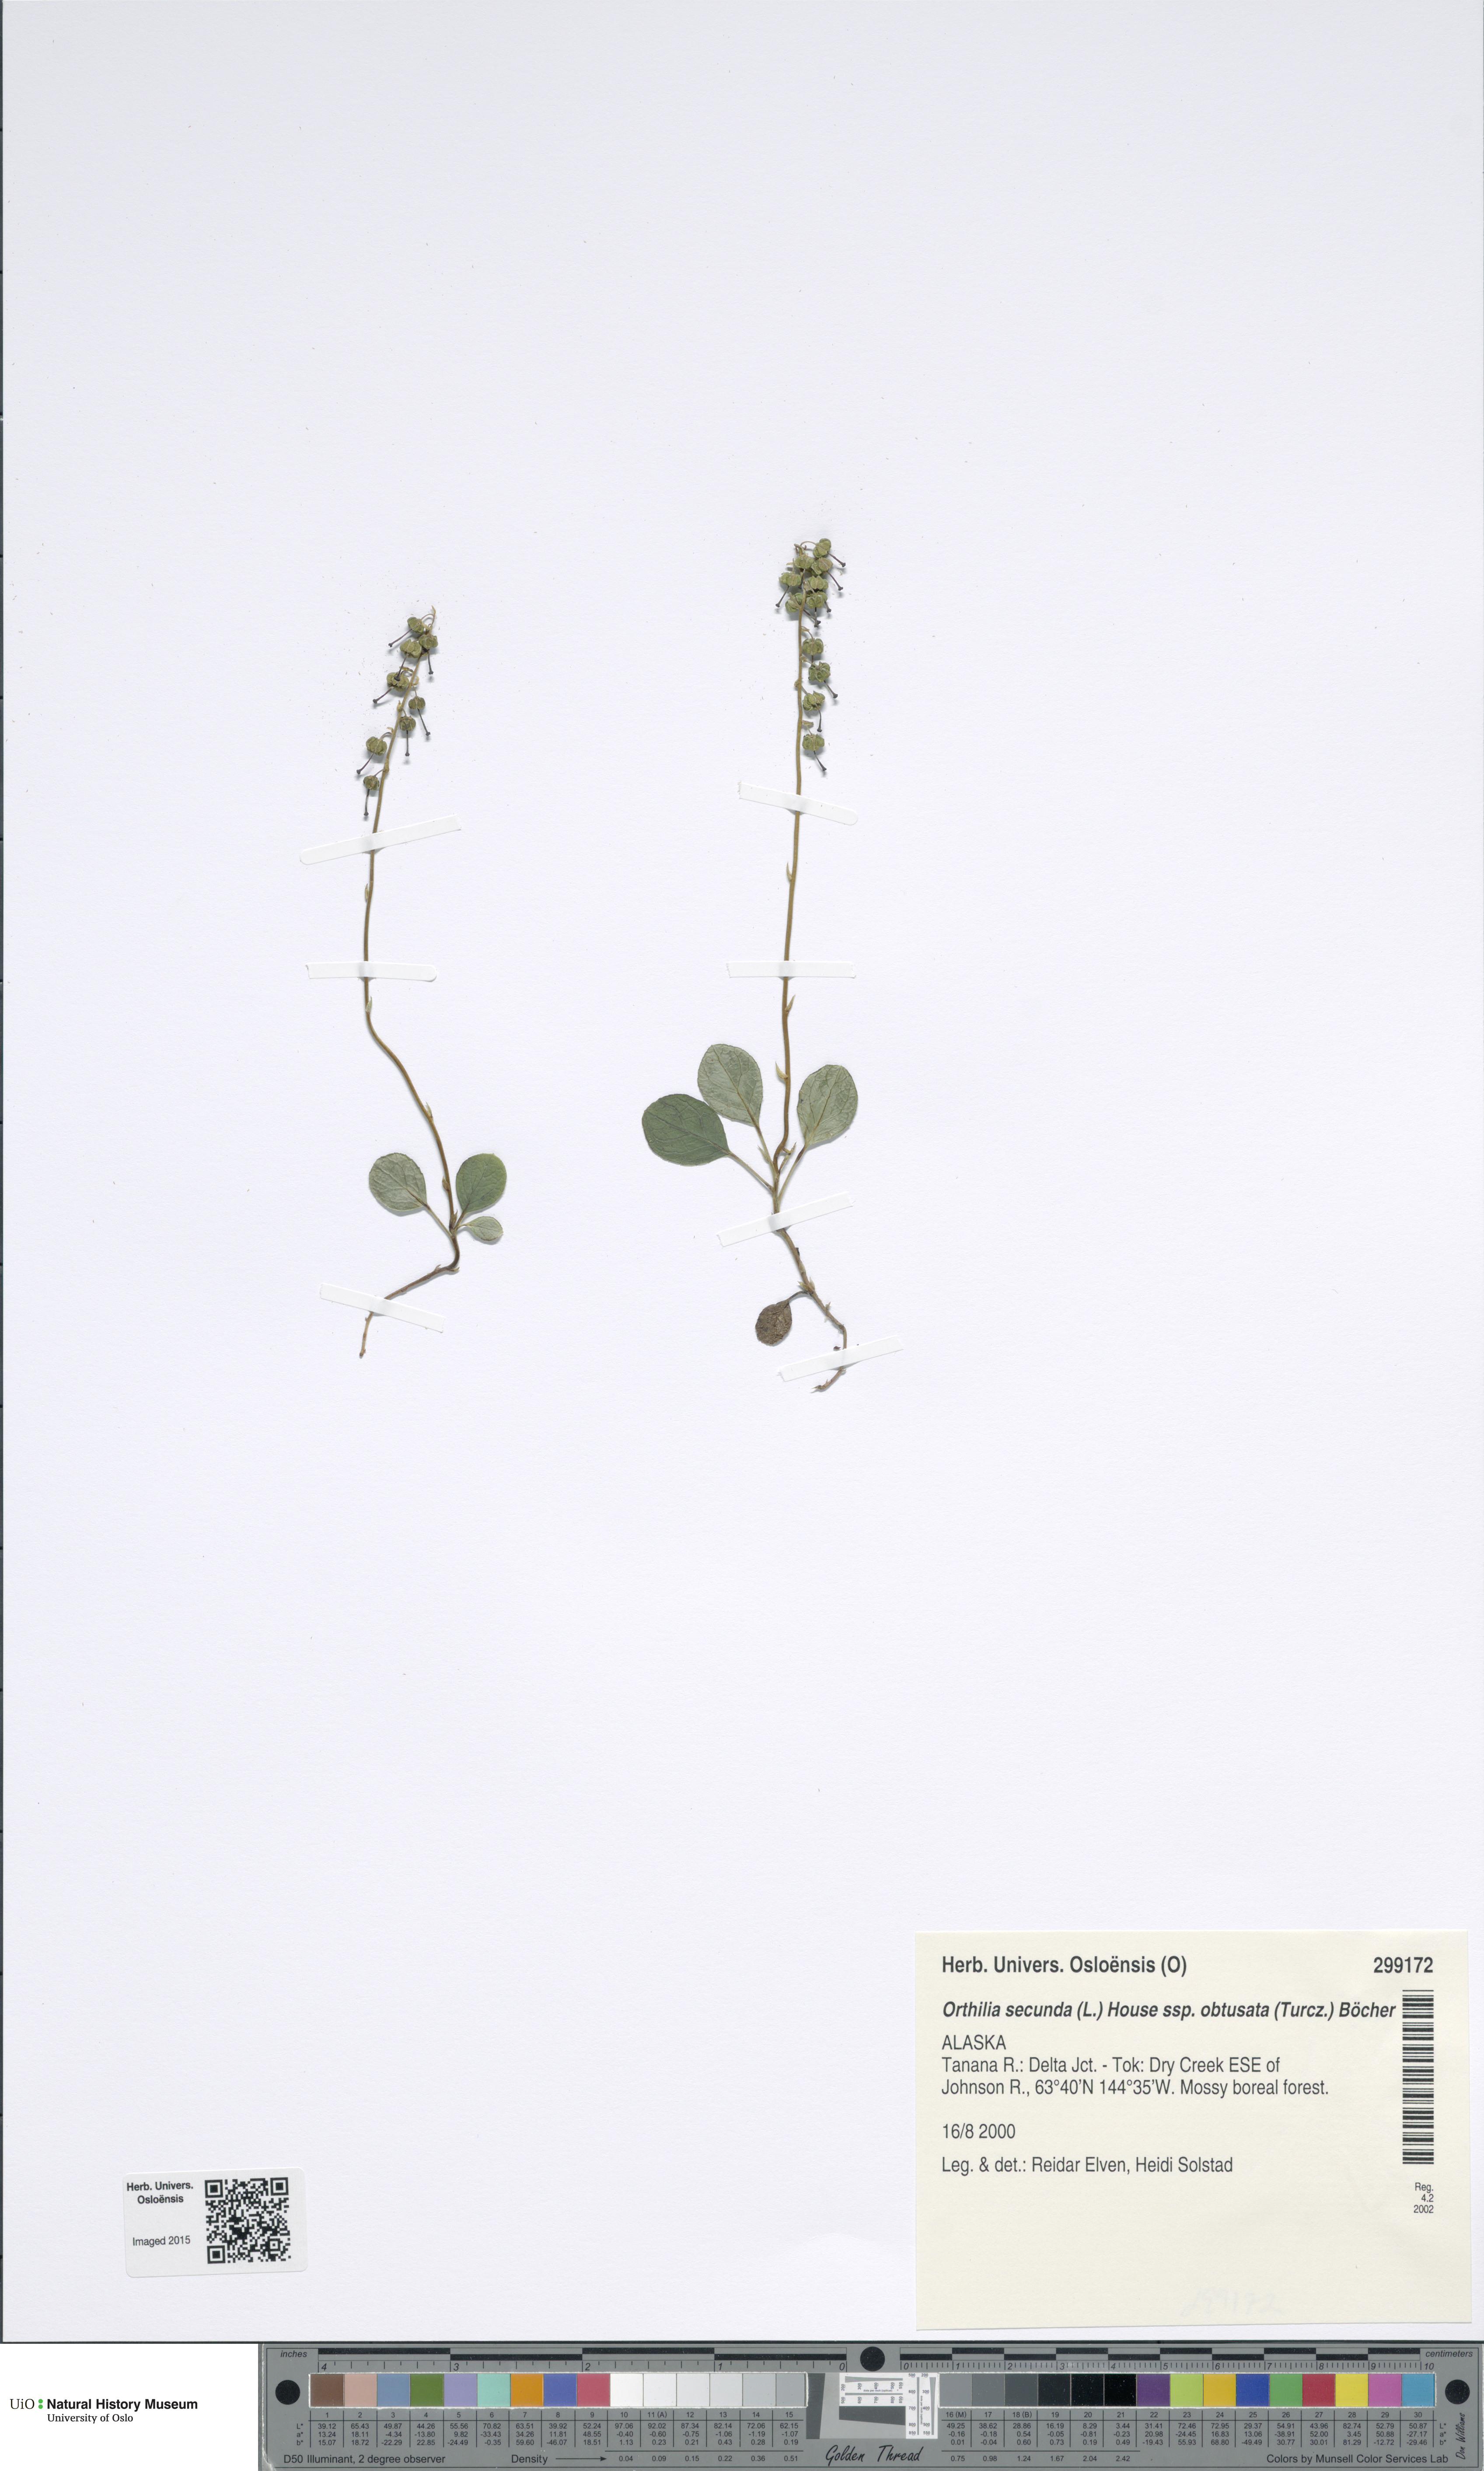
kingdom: Plantae
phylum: Tracheophyta
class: Magnoliopsida
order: Ericales
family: Ericaceae
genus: Orthilia
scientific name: Orthilia secunda
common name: One-sided orthilia
